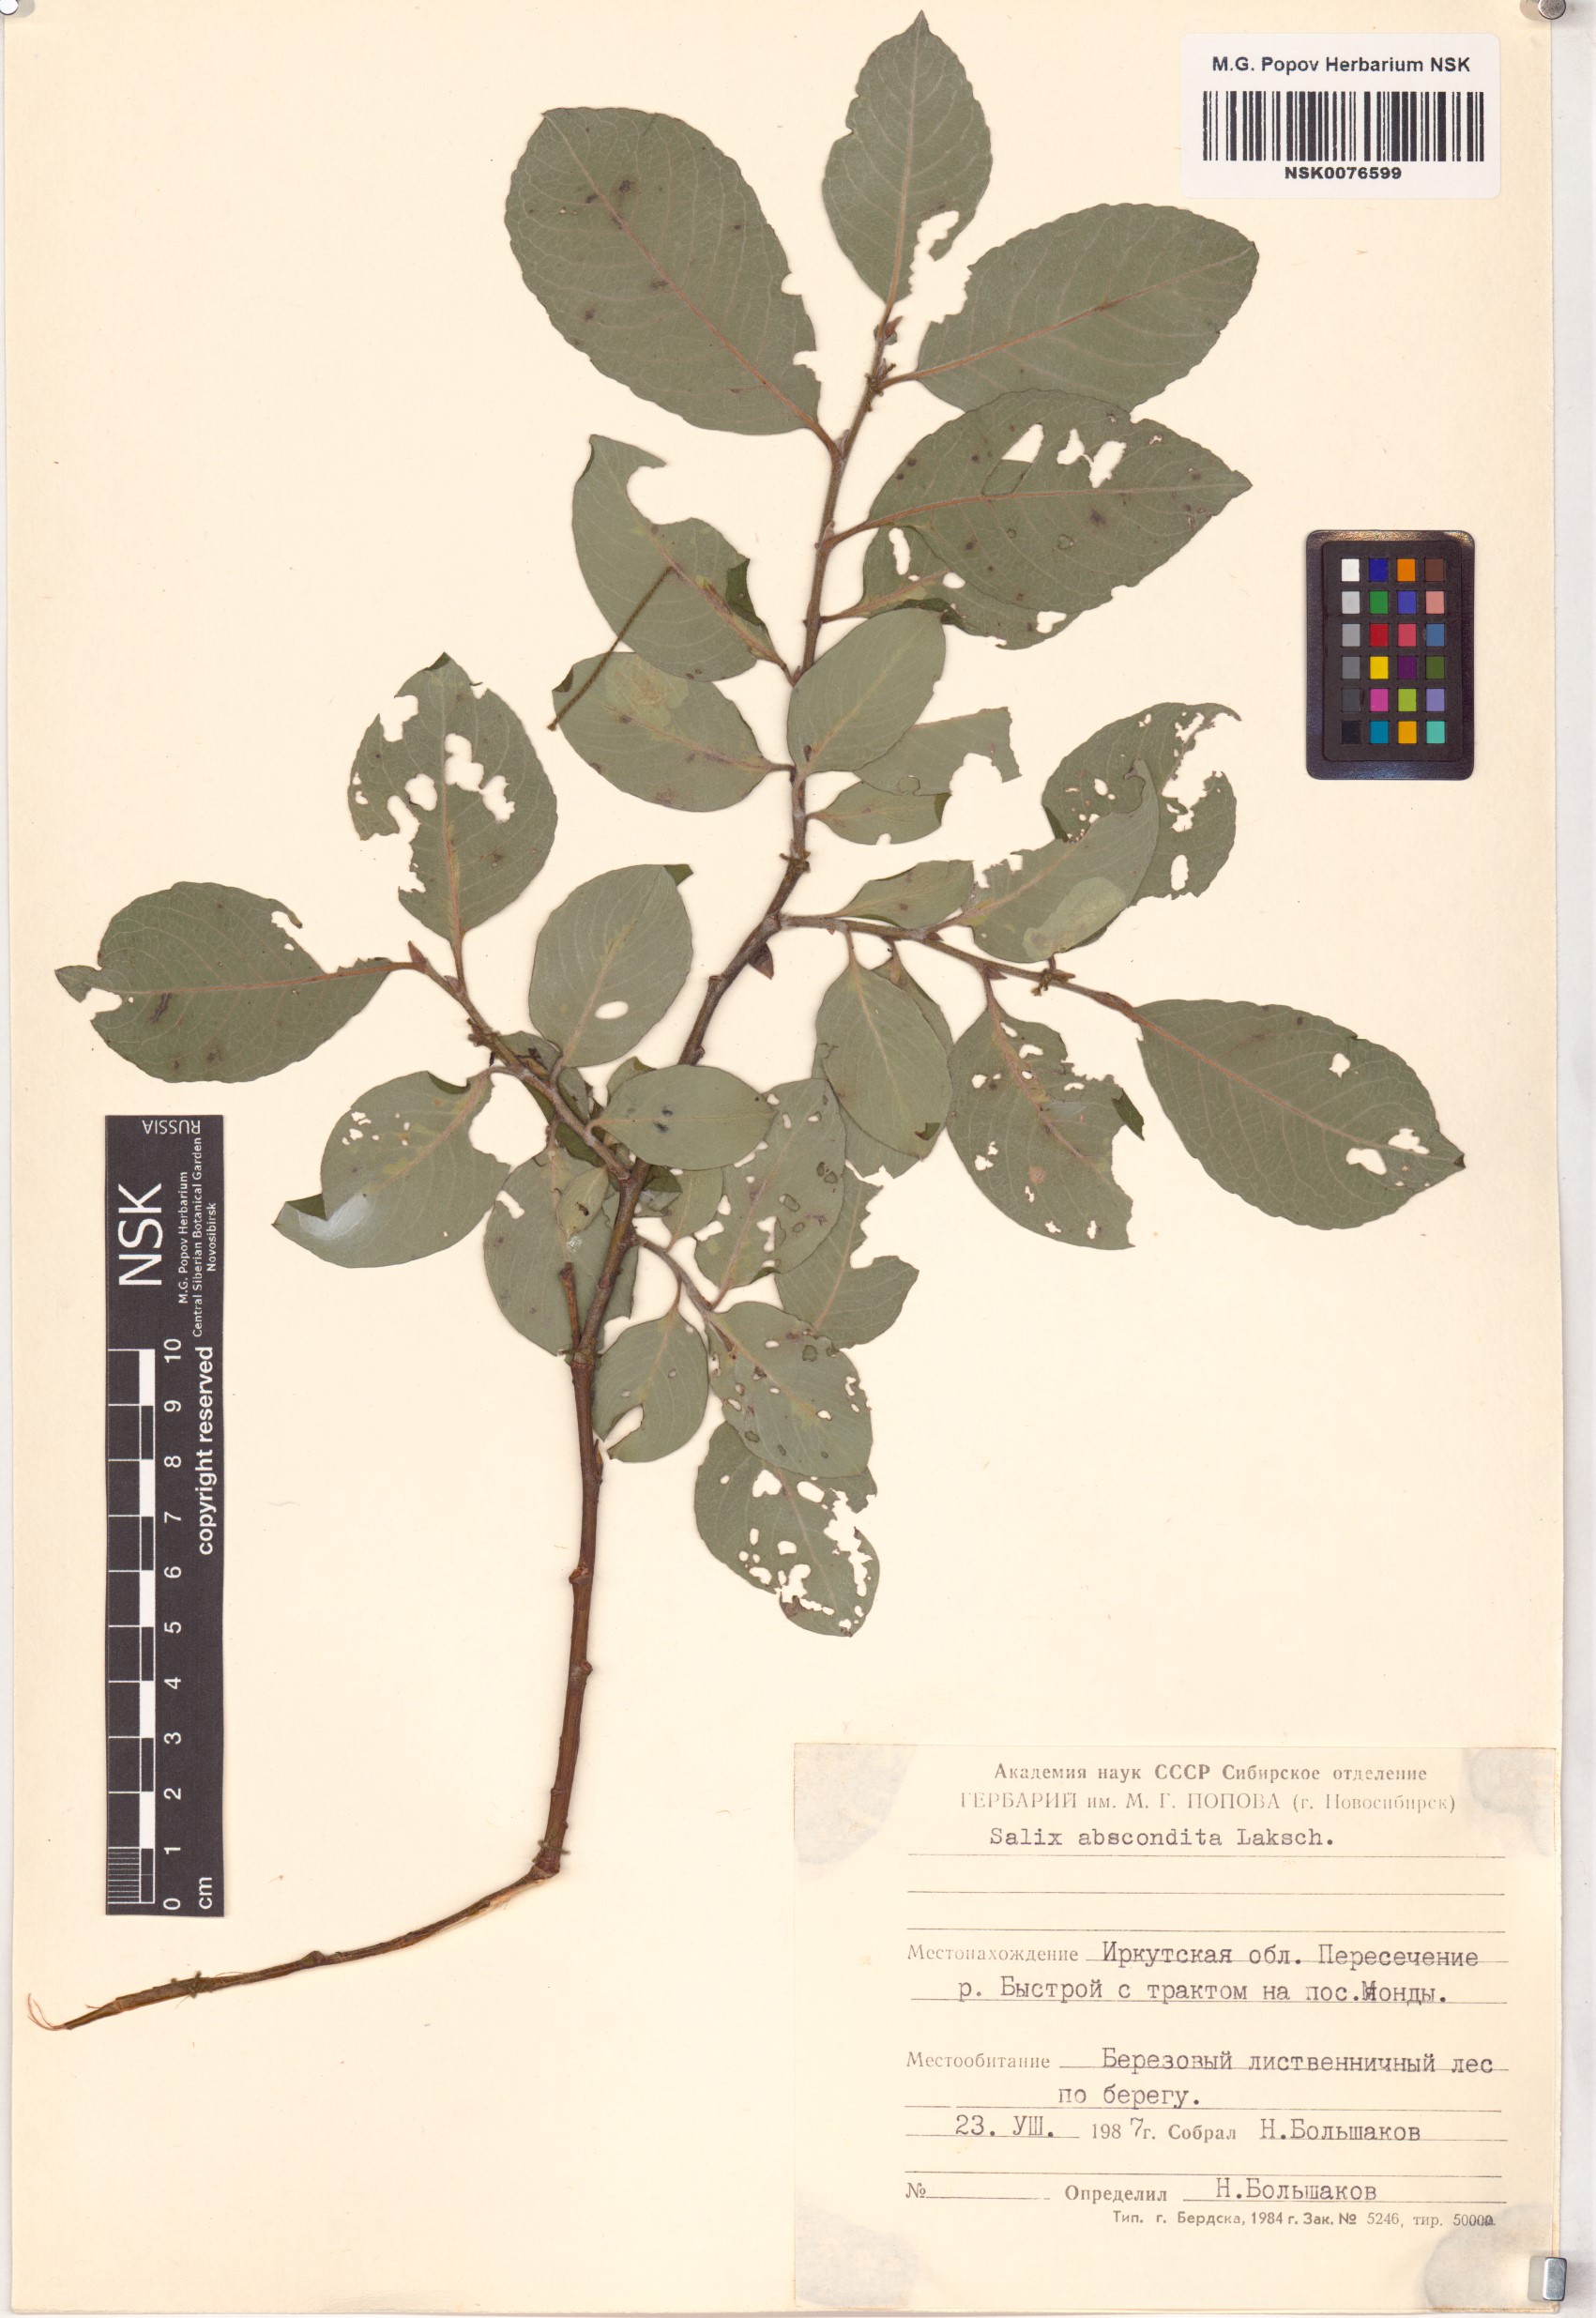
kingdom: Plantae
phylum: Tracheophyta
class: Magnoliopsida
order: Malpighiales
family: Salicaceae
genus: Salix
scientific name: Salix abscondita
